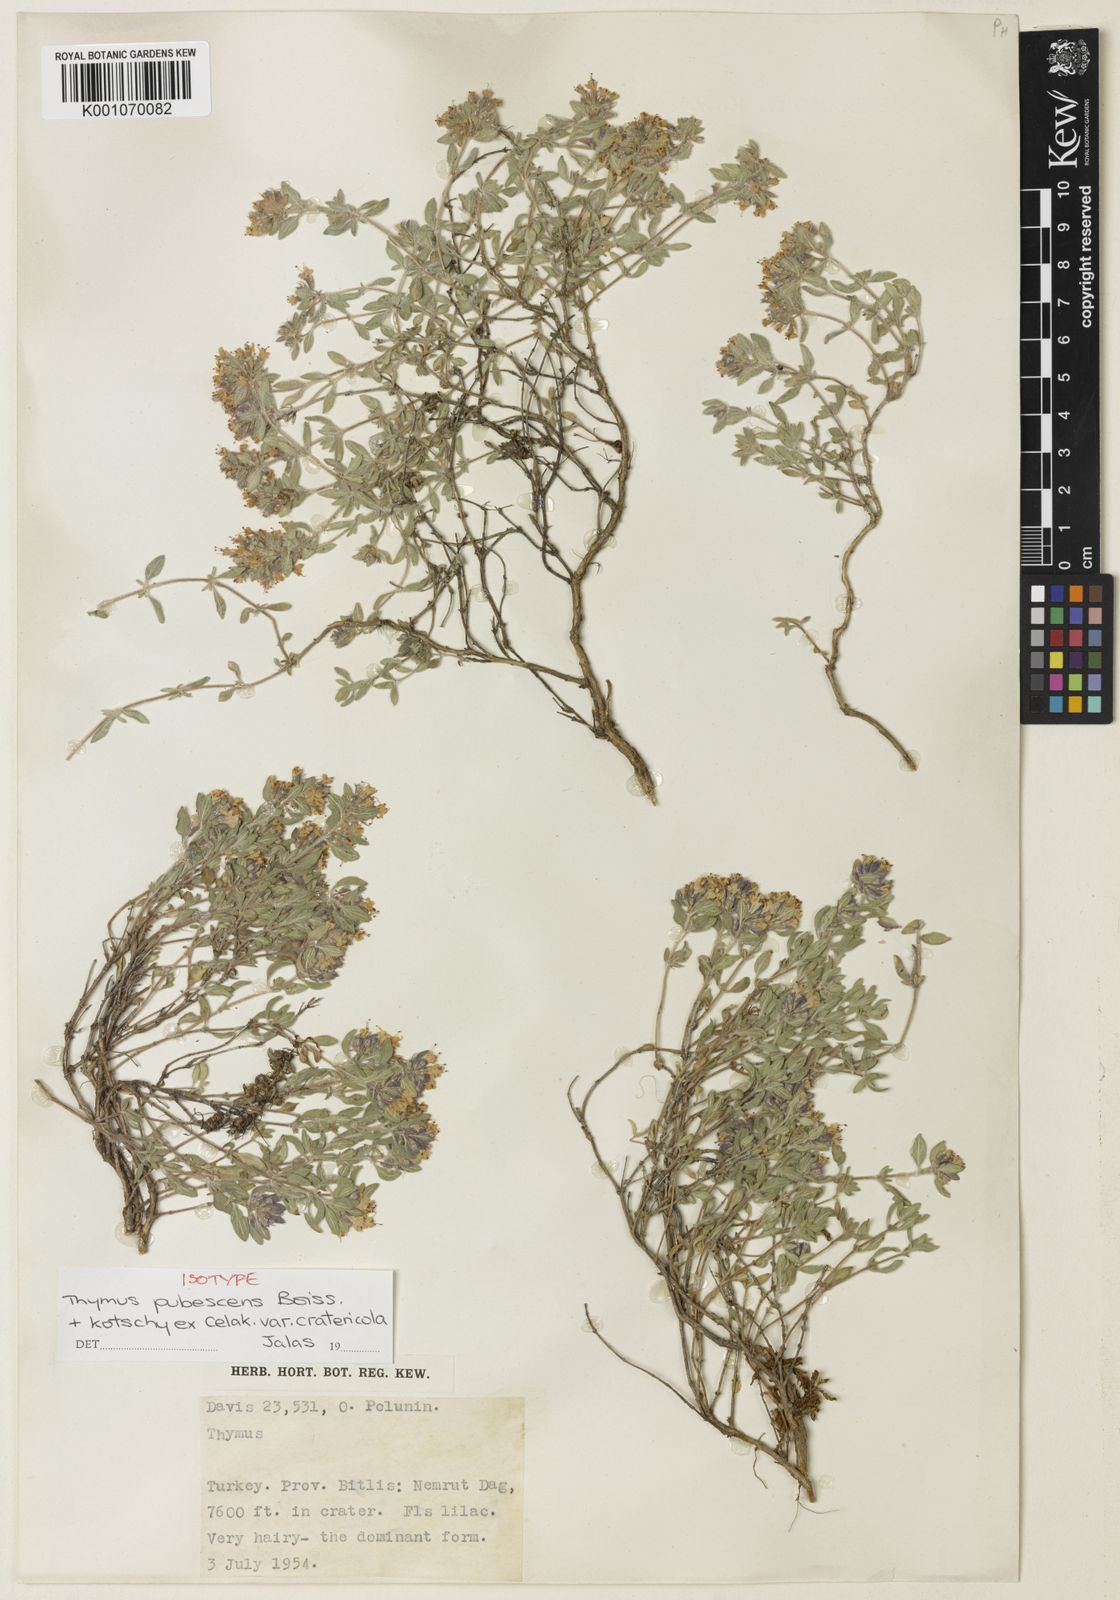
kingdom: Plantae
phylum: Tracheophyta
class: Magnoliopsida
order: Lamiales
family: Lamiaceae
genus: Thymus
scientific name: Thymus pubescens
